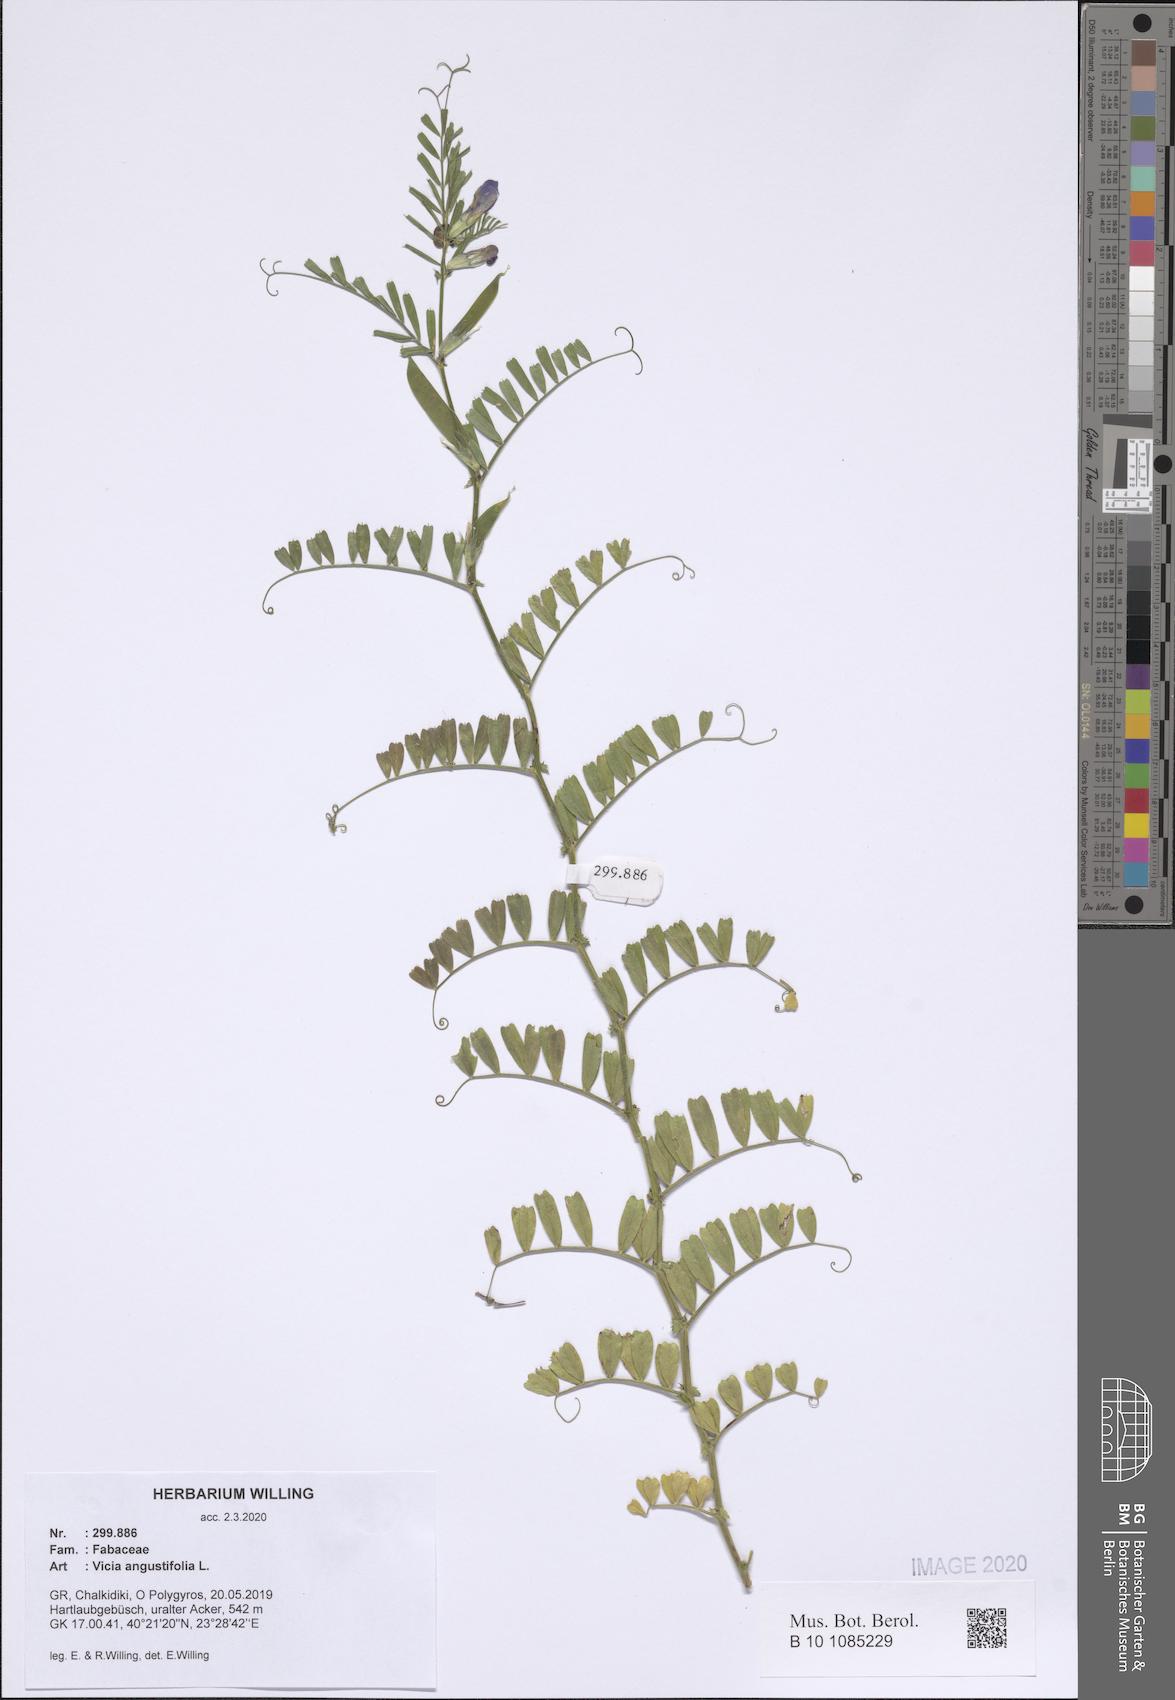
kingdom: Plantae
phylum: Tracheophyta
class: Magnoliopsida
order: Fabales
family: Fabaceae
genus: Vicia
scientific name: Vicia sativa
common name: Garden vetch
